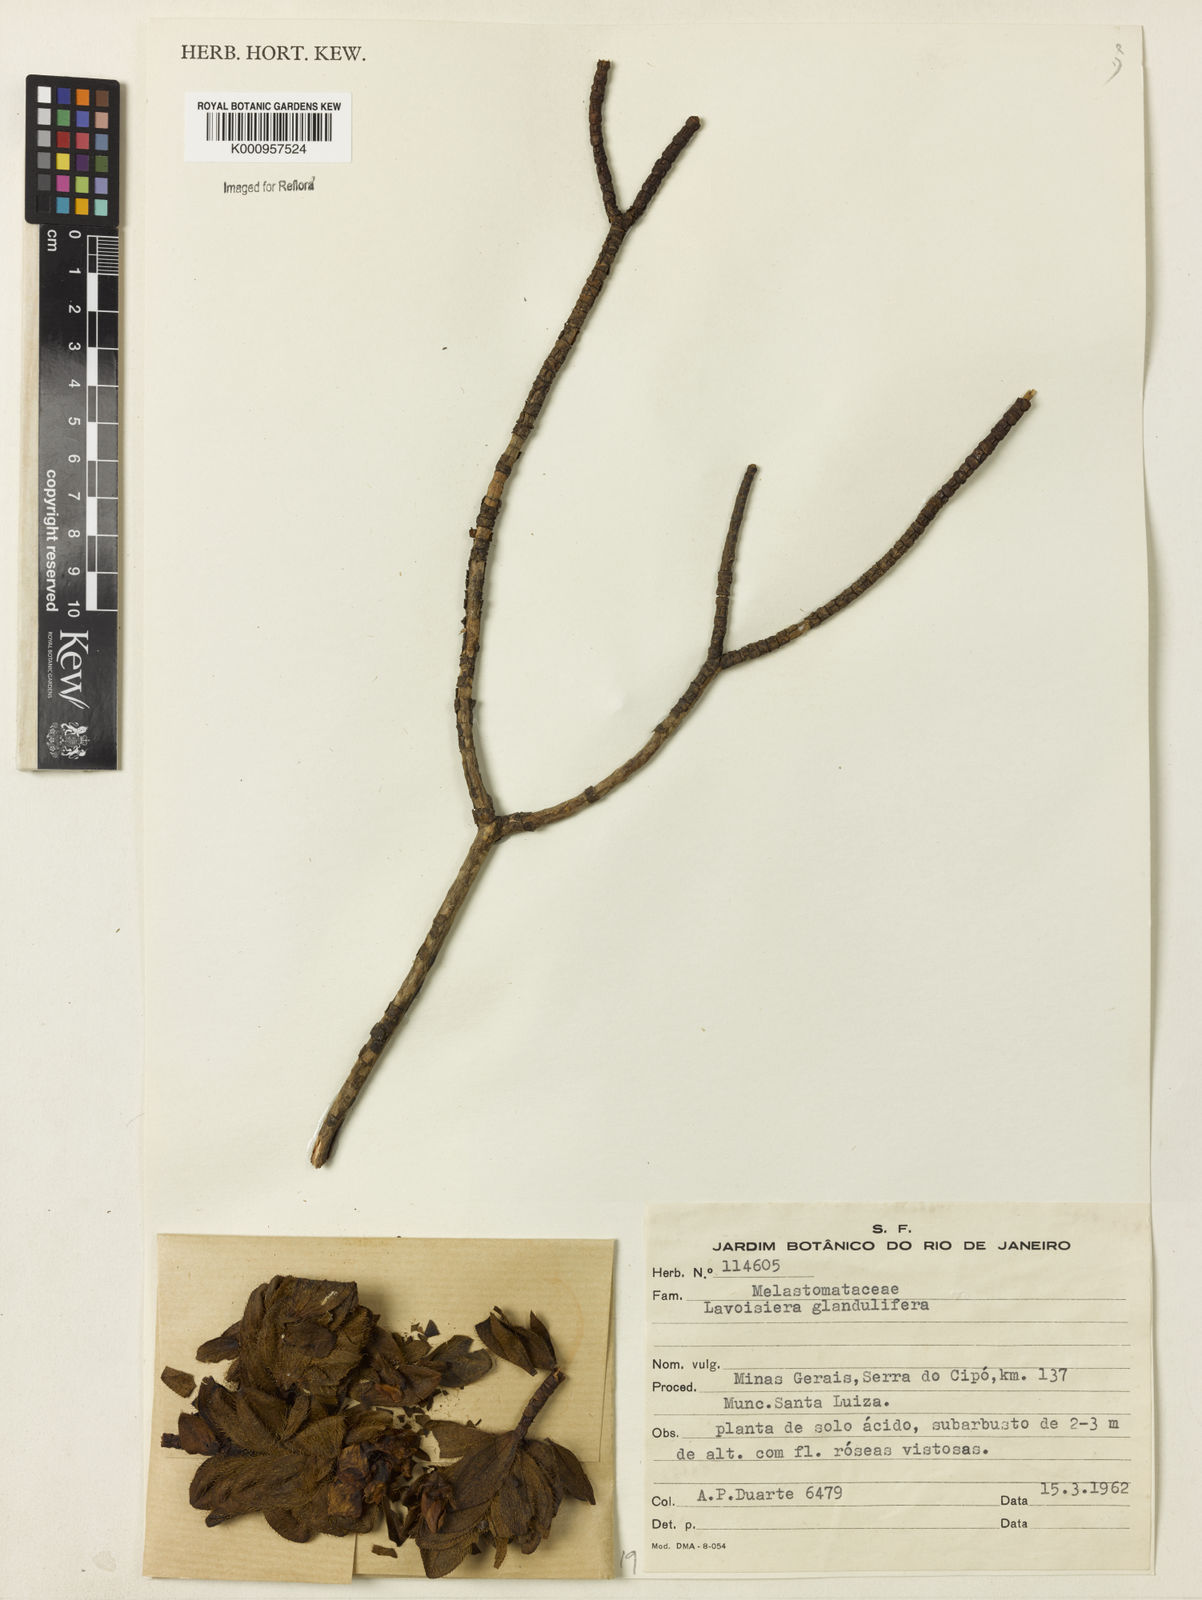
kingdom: Plantae
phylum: Tracheophyta
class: Magnoliopsida
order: Myrtales
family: Melastomataceae
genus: Microlicia
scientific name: Microlicia glandulifolia
